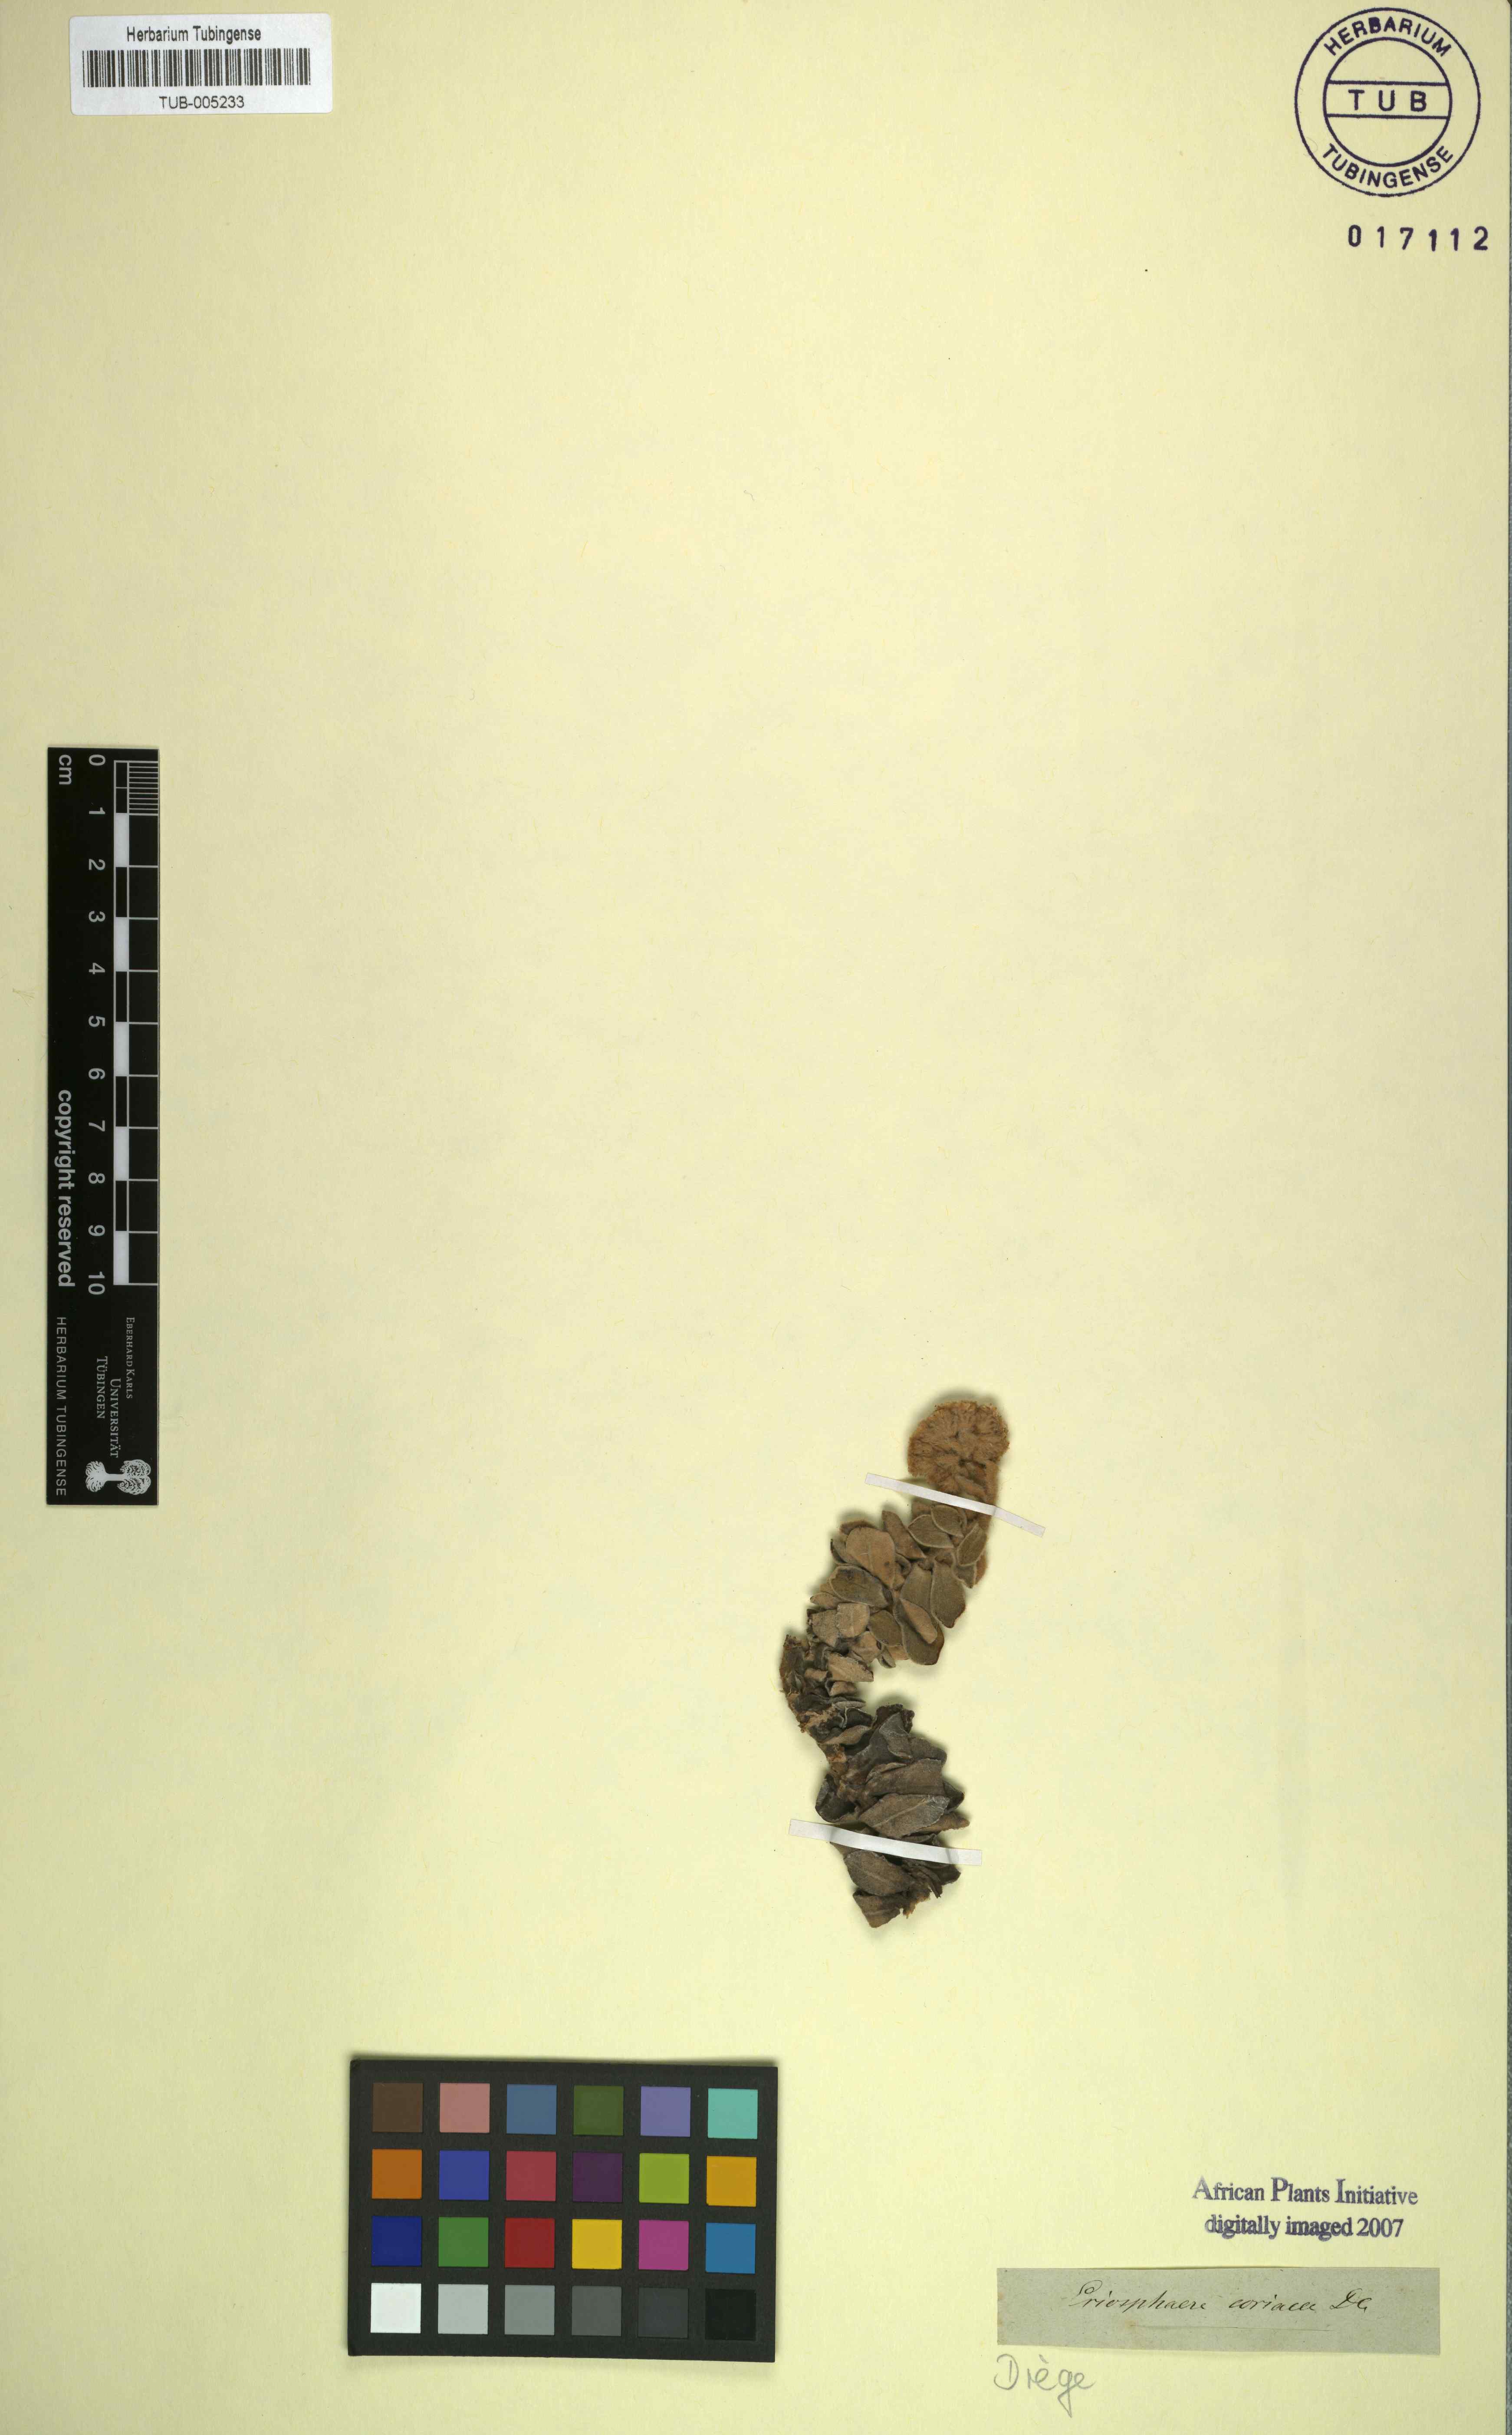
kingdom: Plantae
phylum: Tracheophyta
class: Magnoliopsida
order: Asterales
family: Asteraceae
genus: Helichrysum
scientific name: Helichrysum rotundatum
